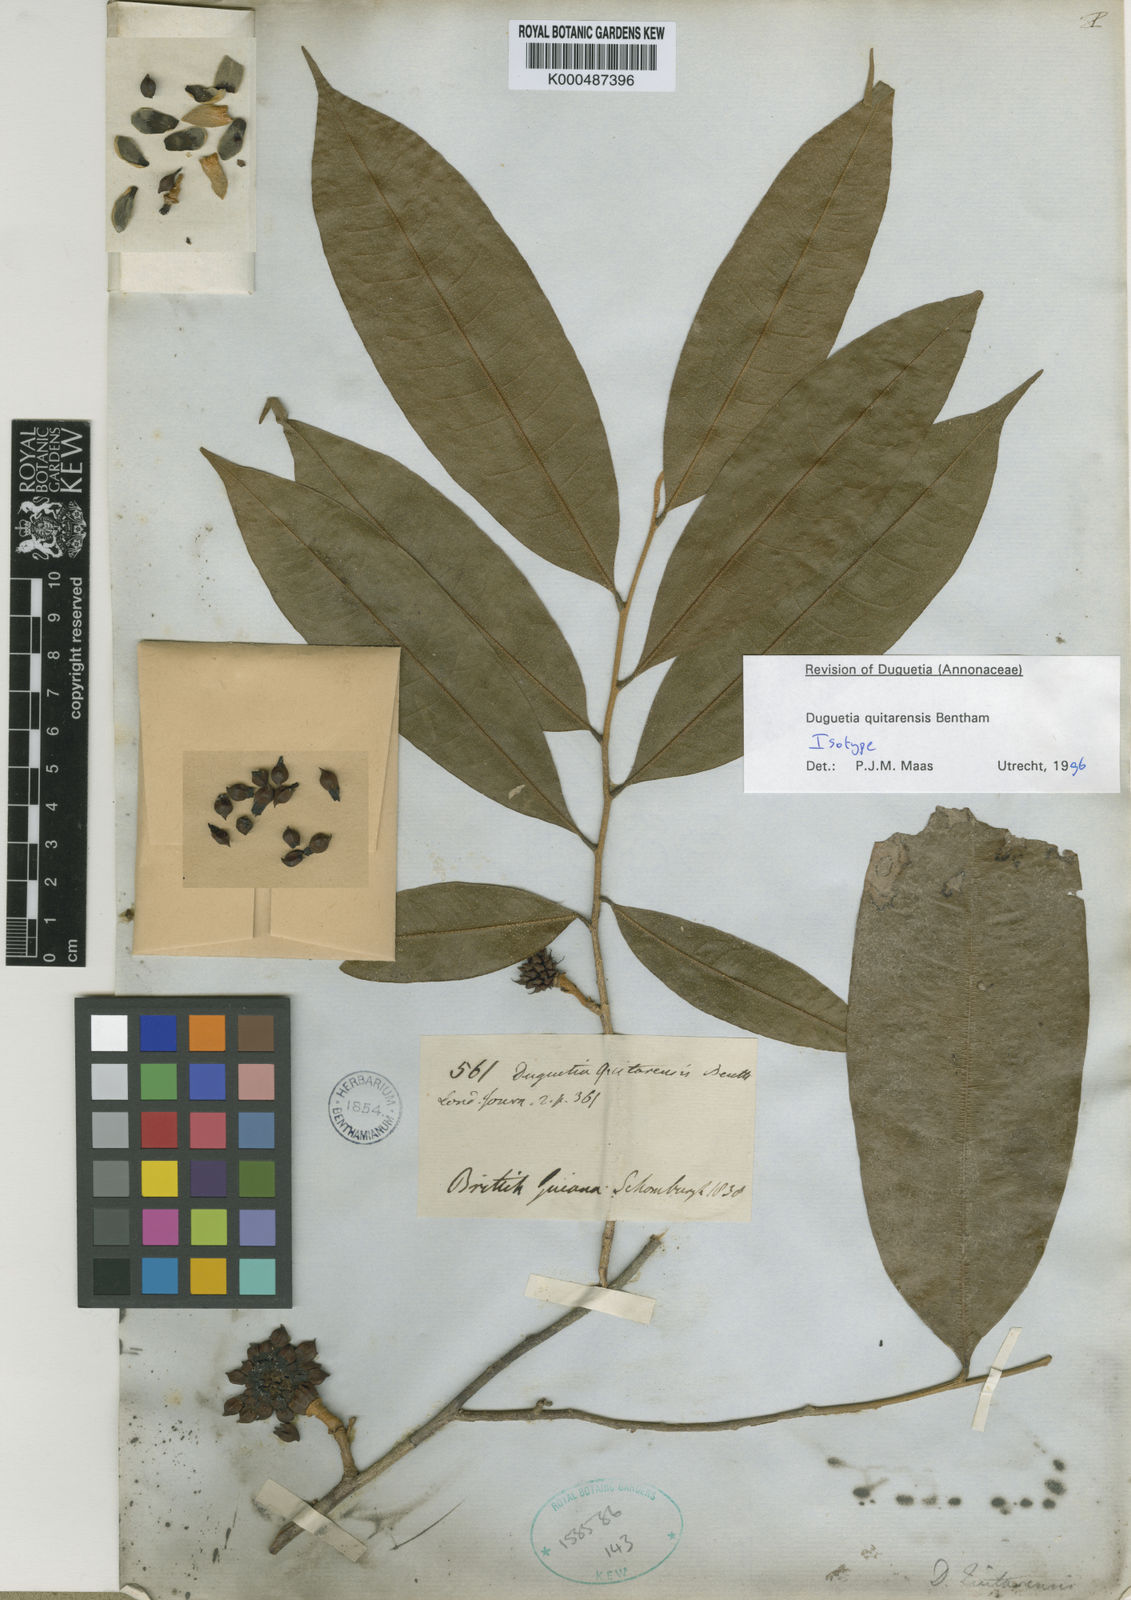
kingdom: Plantae
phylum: Tracheophyta
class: Magnoliopsida
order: Magnoliales
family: Annonaceae
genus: Duguetia
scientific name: Duguetia quitarensis
